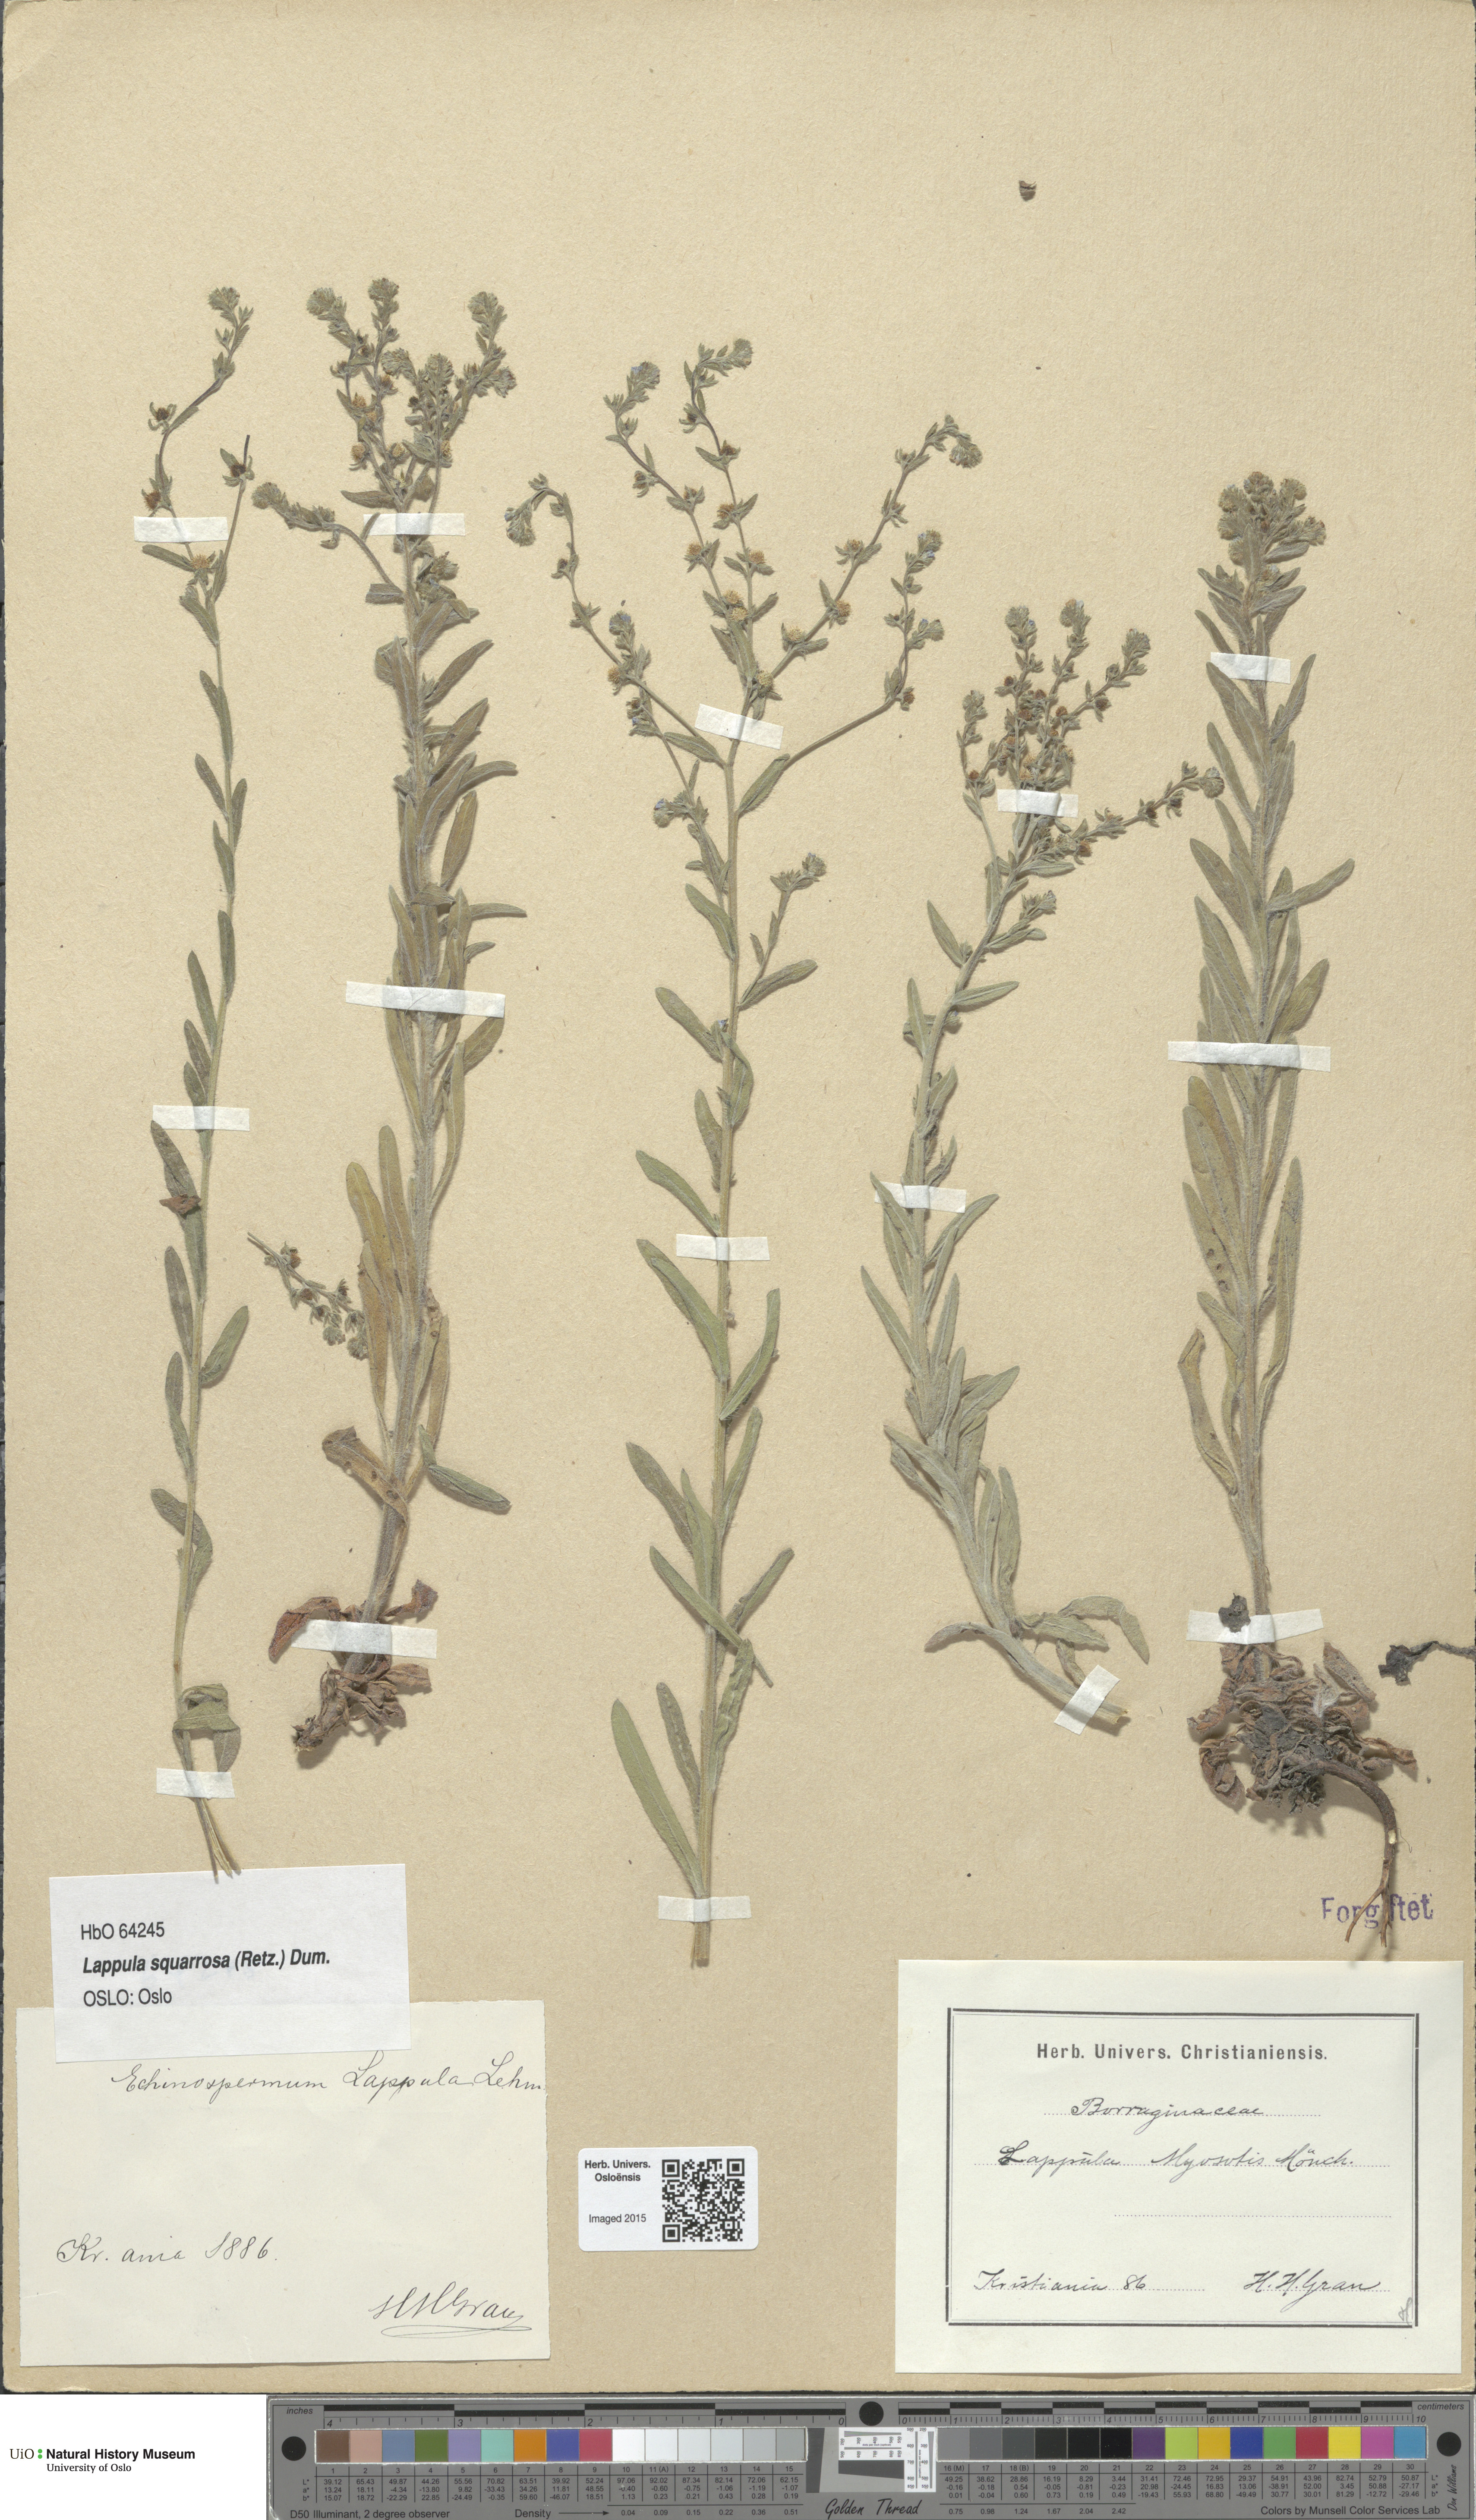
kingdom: Plantae
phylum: Tracheophyta
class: Magnoliopsida
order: Boraginales
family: Boraginaceae
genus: Lappula
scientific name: Lappula squarrosa
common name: European stickseed
